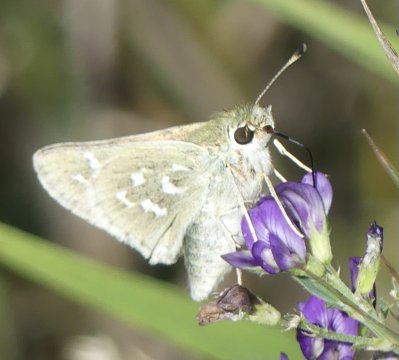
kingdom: Animalia
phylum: Arthropoda
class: Insecta
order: Lepidoptera
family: Hesperiidae
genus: Hesperia
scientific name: Hesperia comma
